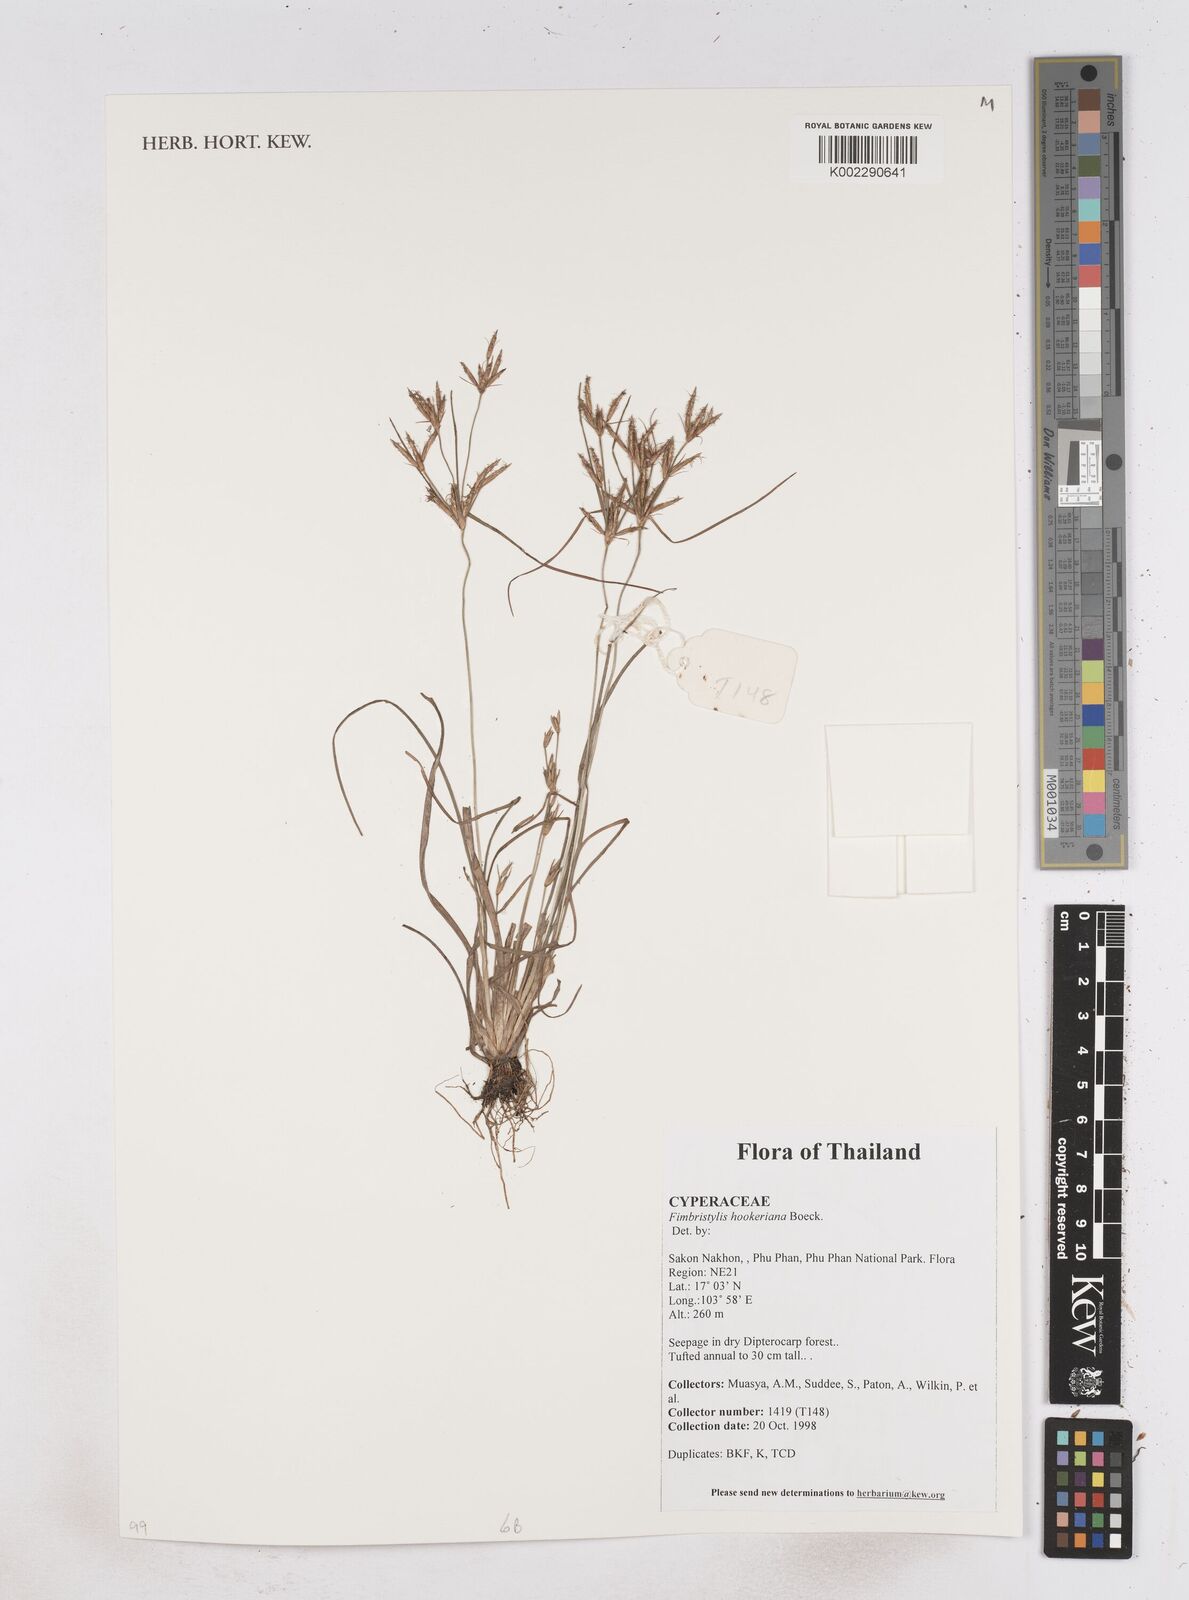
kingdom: Plantae
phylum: Tracheophyta
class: Liliopsida
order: Poales
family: Cyperaceae
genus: Fimbristylis
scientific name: Fimbristylis hookeriana
